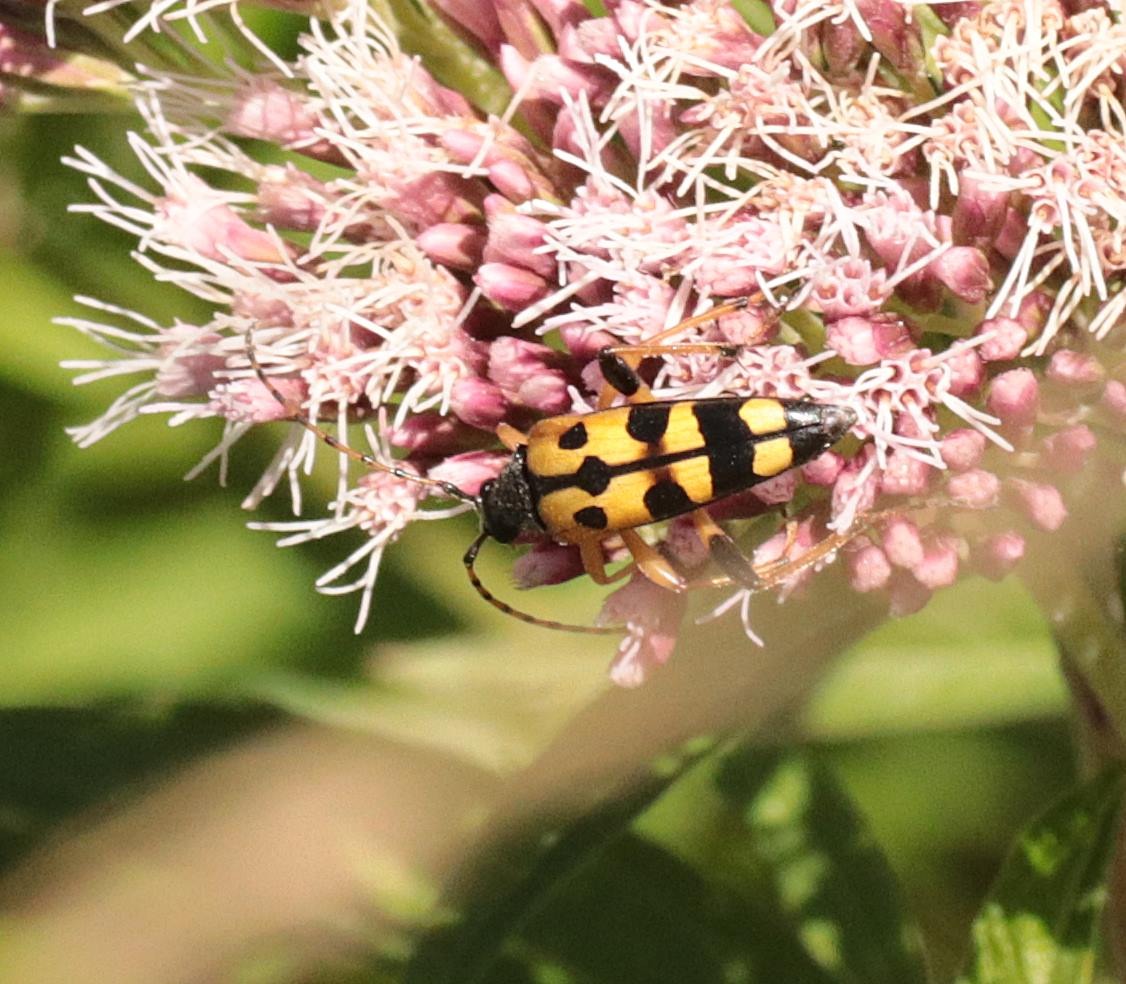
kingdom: Animalia
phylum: Arthropoda
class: Insecta
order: Coleoptera
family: Cerambycidae
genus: Rutpela
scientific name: Rutpela maculata
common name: Sydlig blomsterbuk
